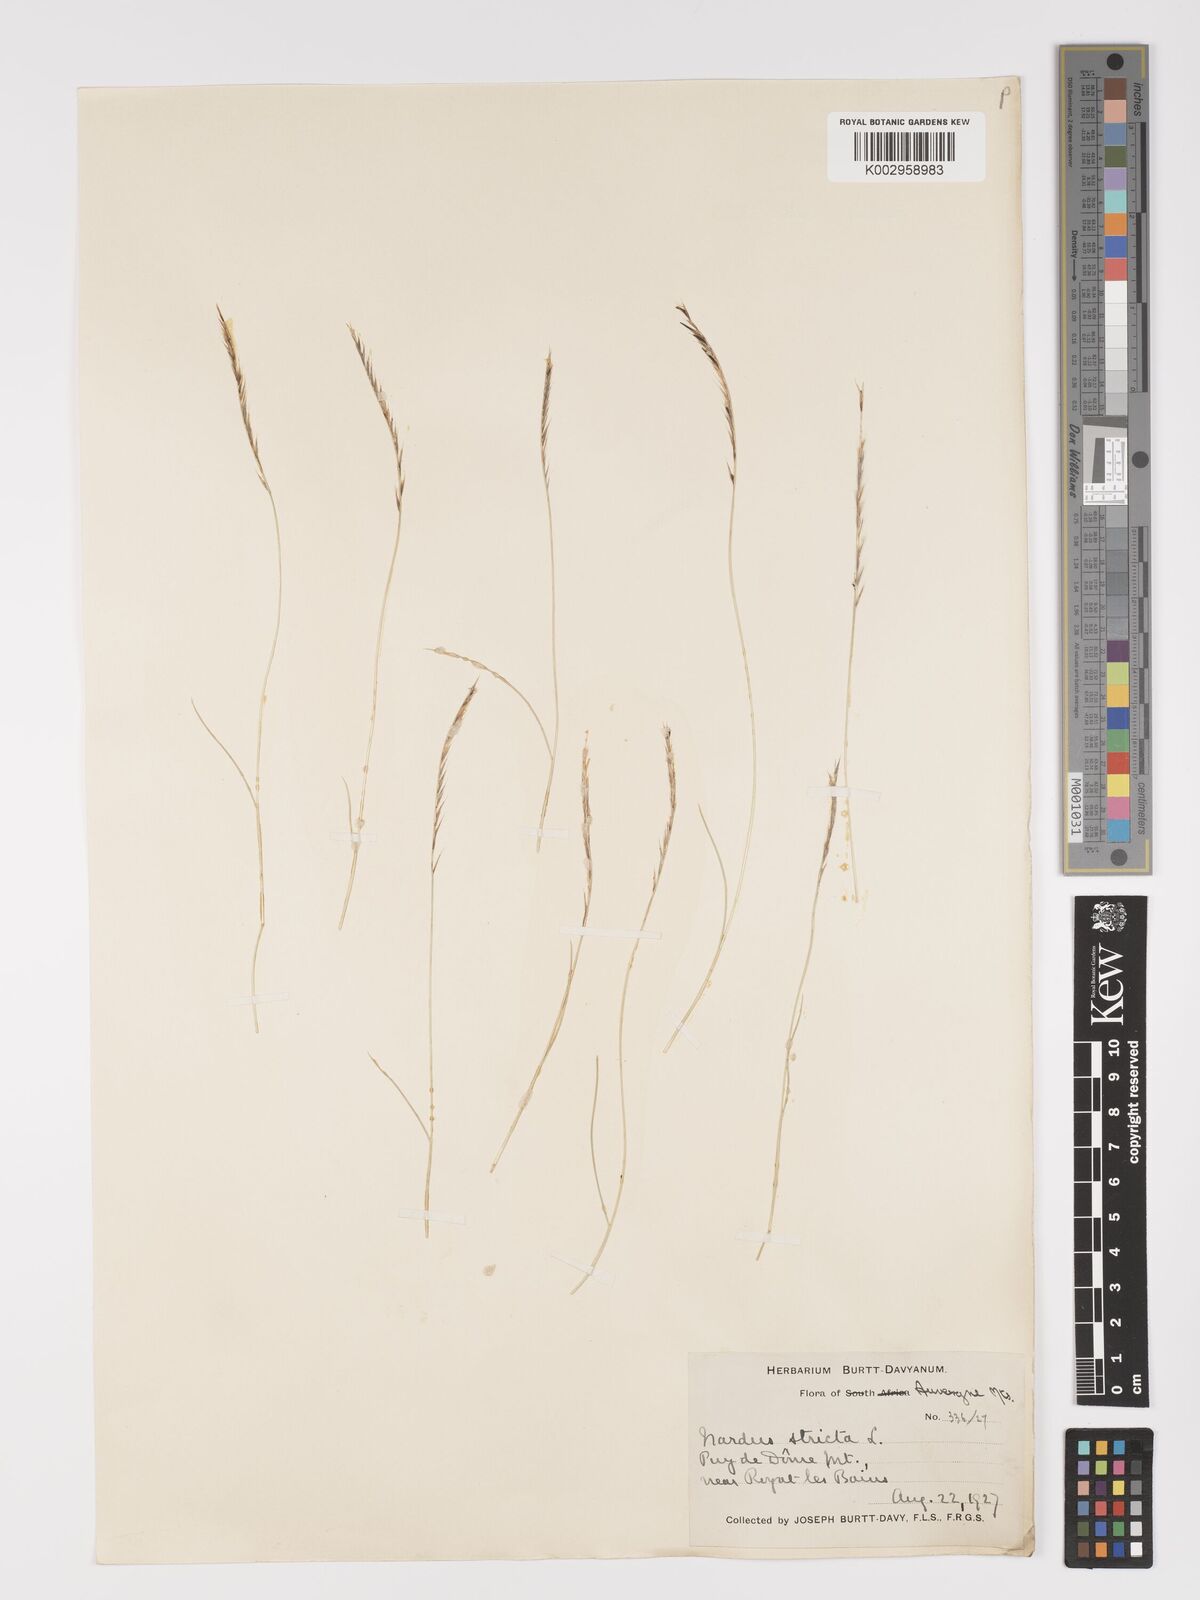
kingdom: Plantae
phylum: Tracheophyta
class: Liliopsida
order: Poales
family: Poaceae
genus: Nardus
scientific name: Nardus stricta
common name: Mat-grass
